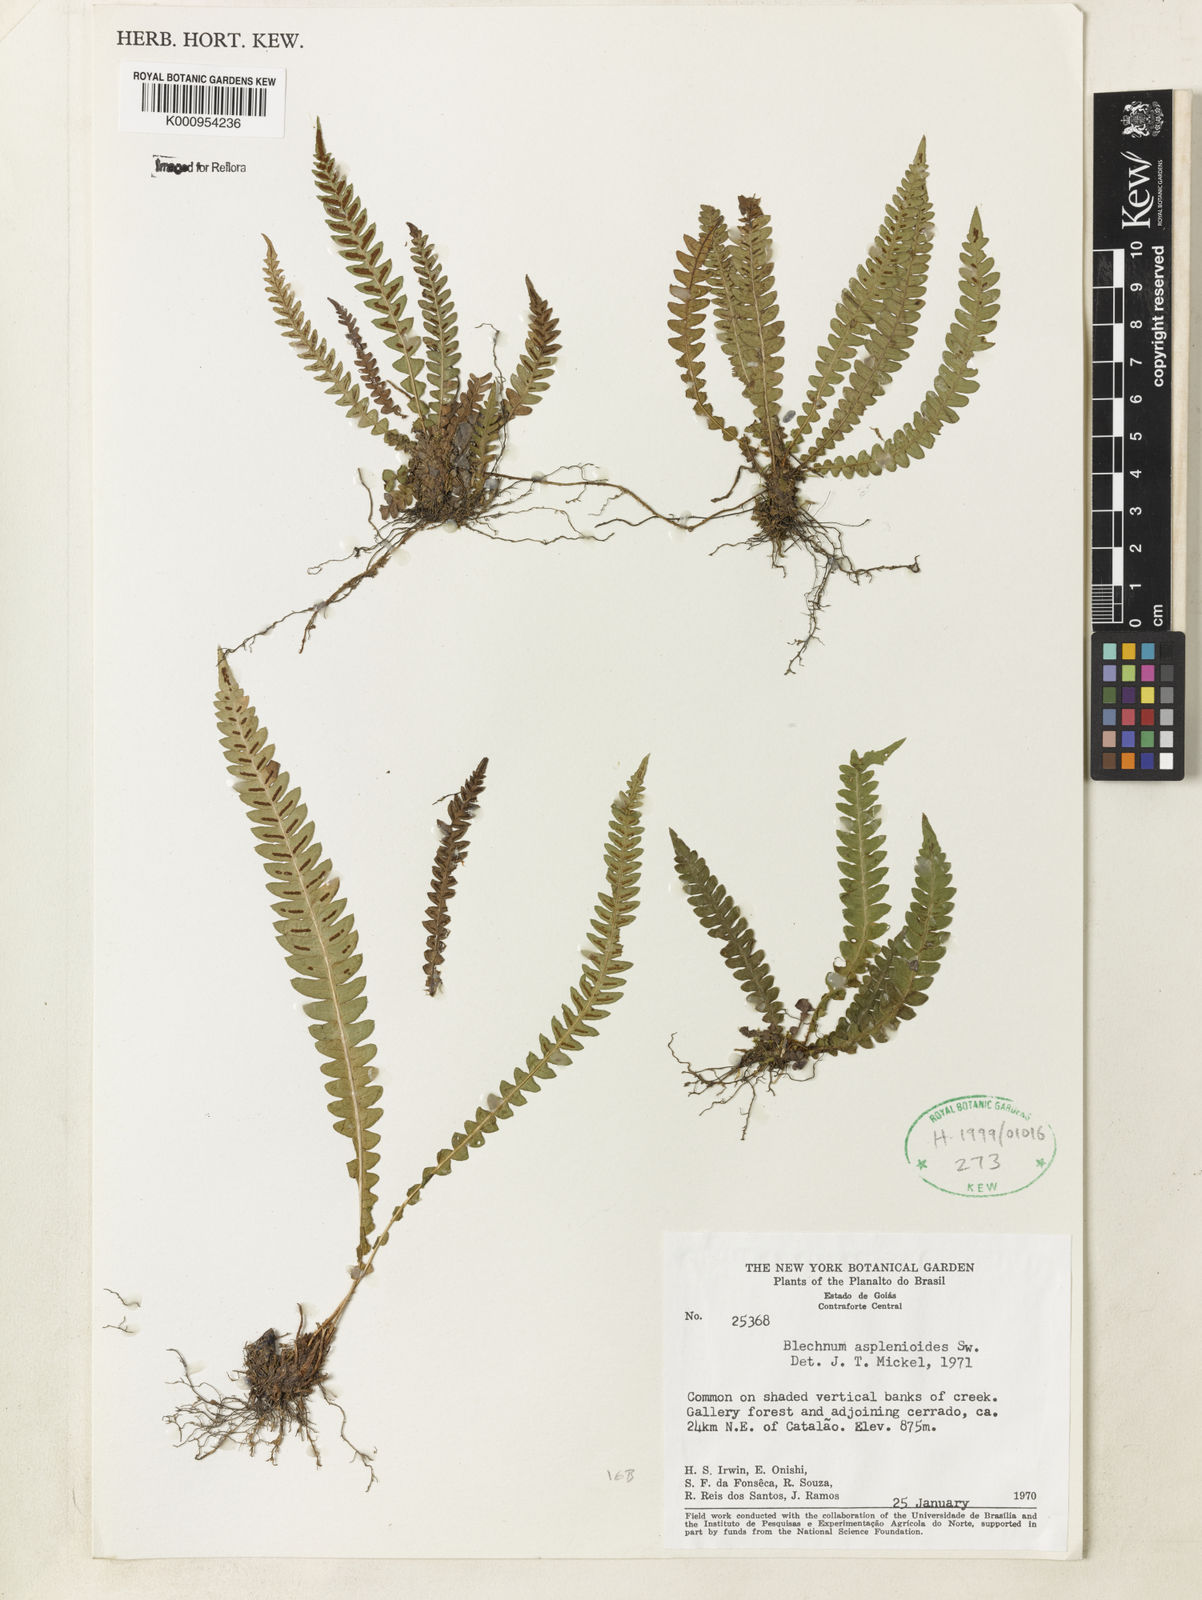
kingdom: Plantae
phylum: Tracheophyta
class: Polypodiopsida
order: Polypodiales
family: Blechnaceae
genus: Blechnum
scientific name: Blechnum asplenioides
